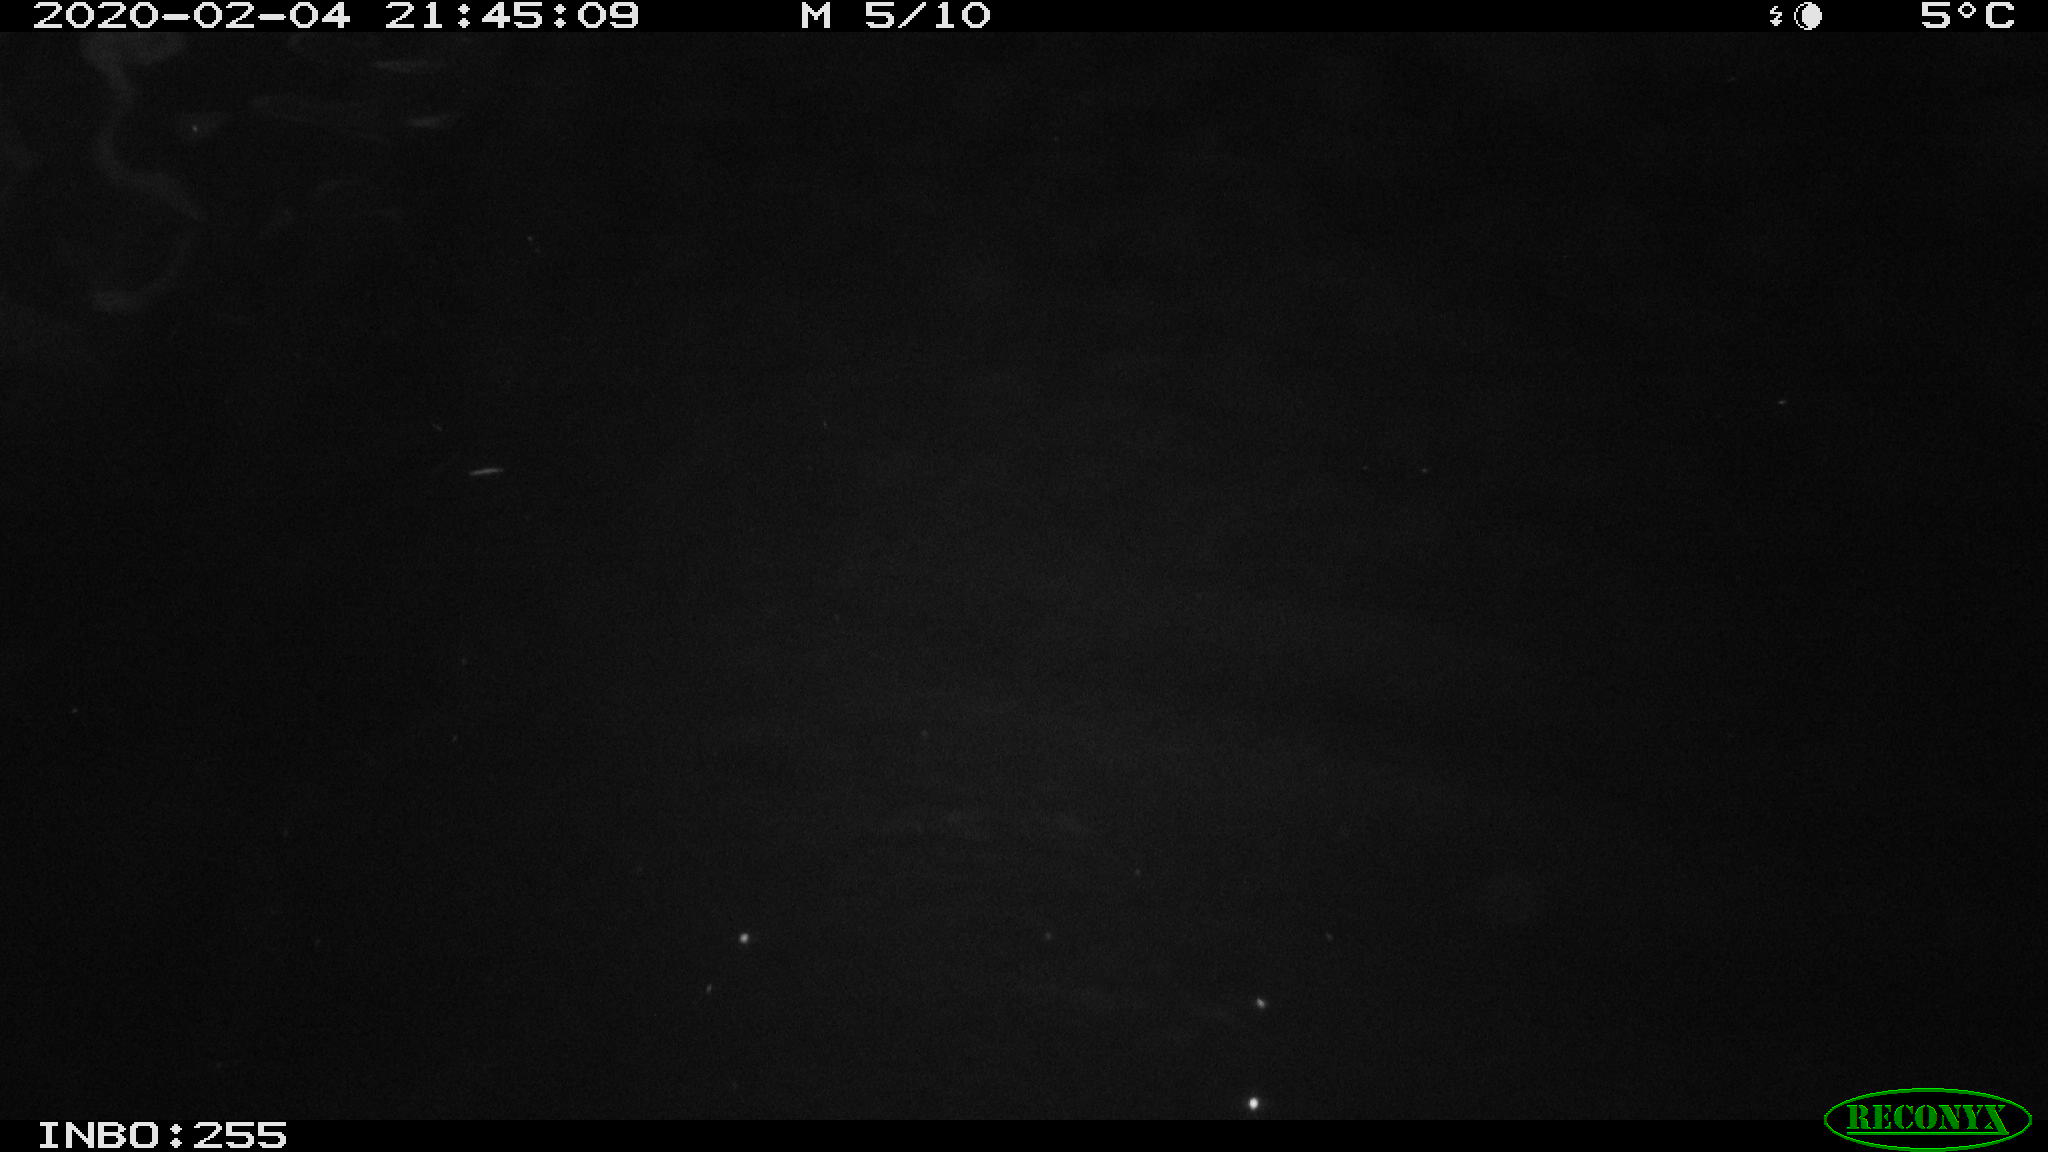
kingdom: Animalia
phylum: Chordata
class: Mammalia
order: Rodentia
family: Cricetidae
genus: Ondatra
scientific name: Ondatra zibethicus
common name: Muskrat
